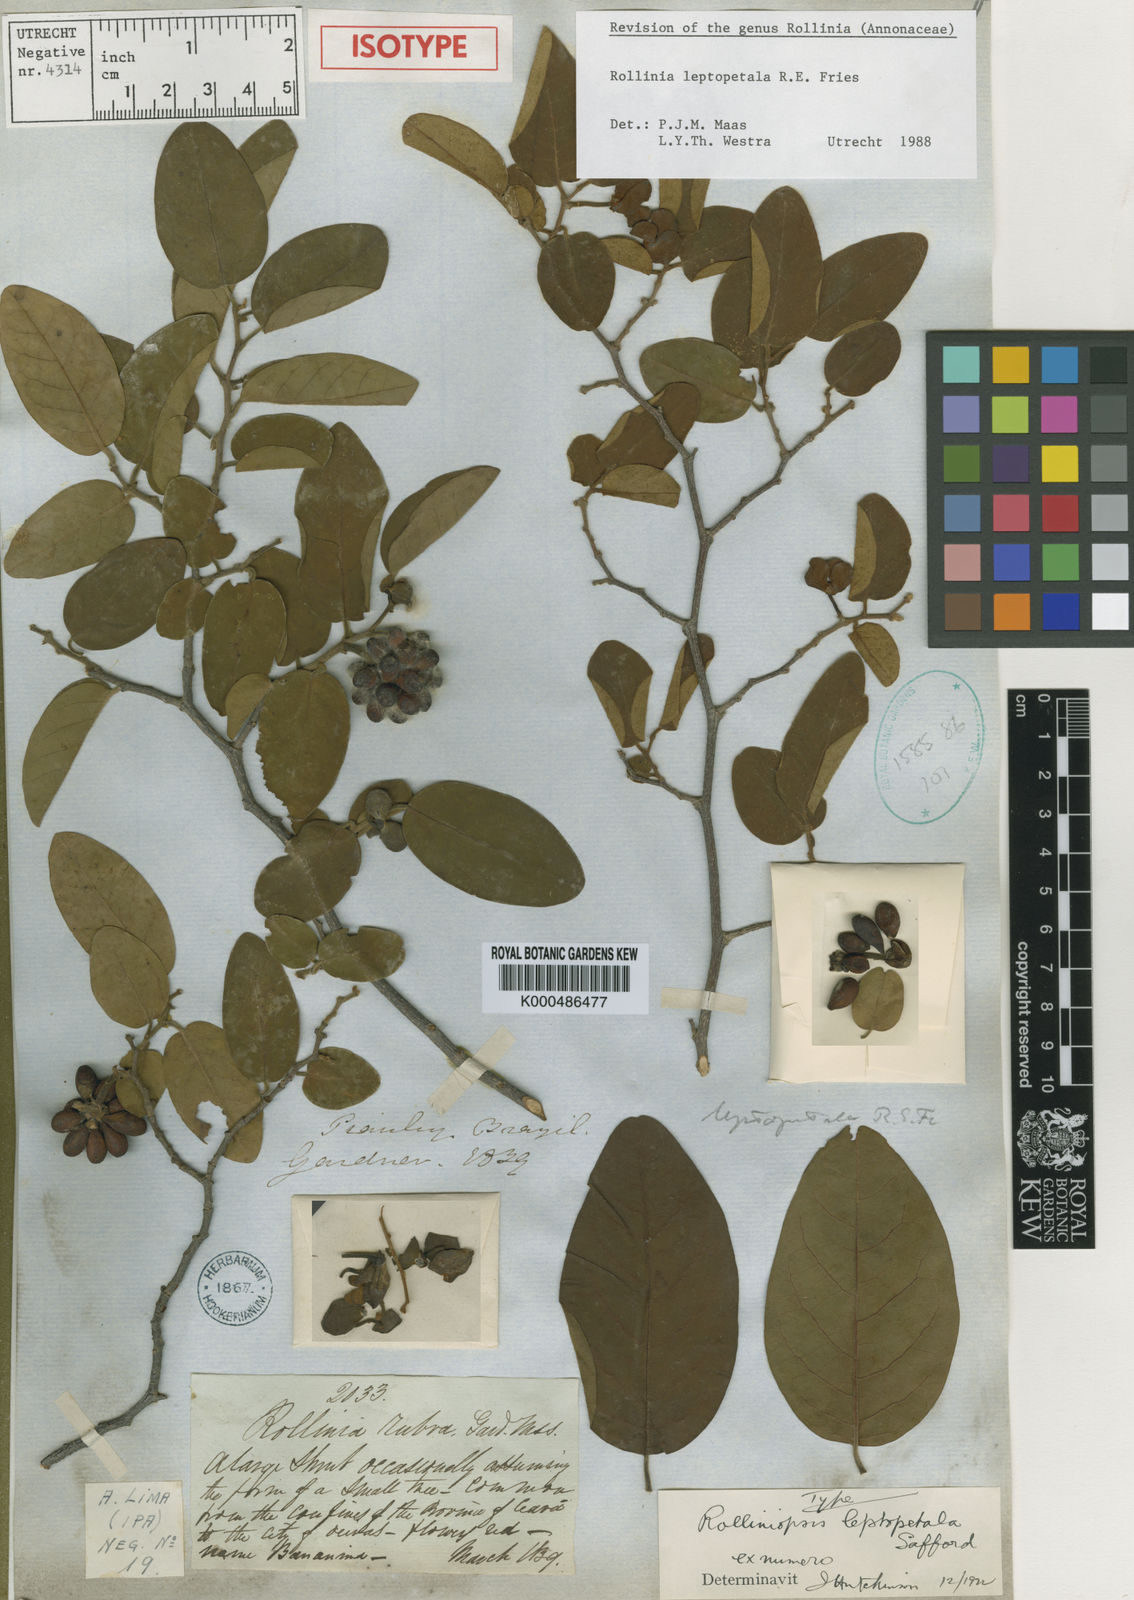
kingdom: Plantae
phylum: Tracheophyta
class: Magnoliopsida
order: Magnoliales
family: Annonaceae
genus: Annona
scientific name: Annona leptopetala
